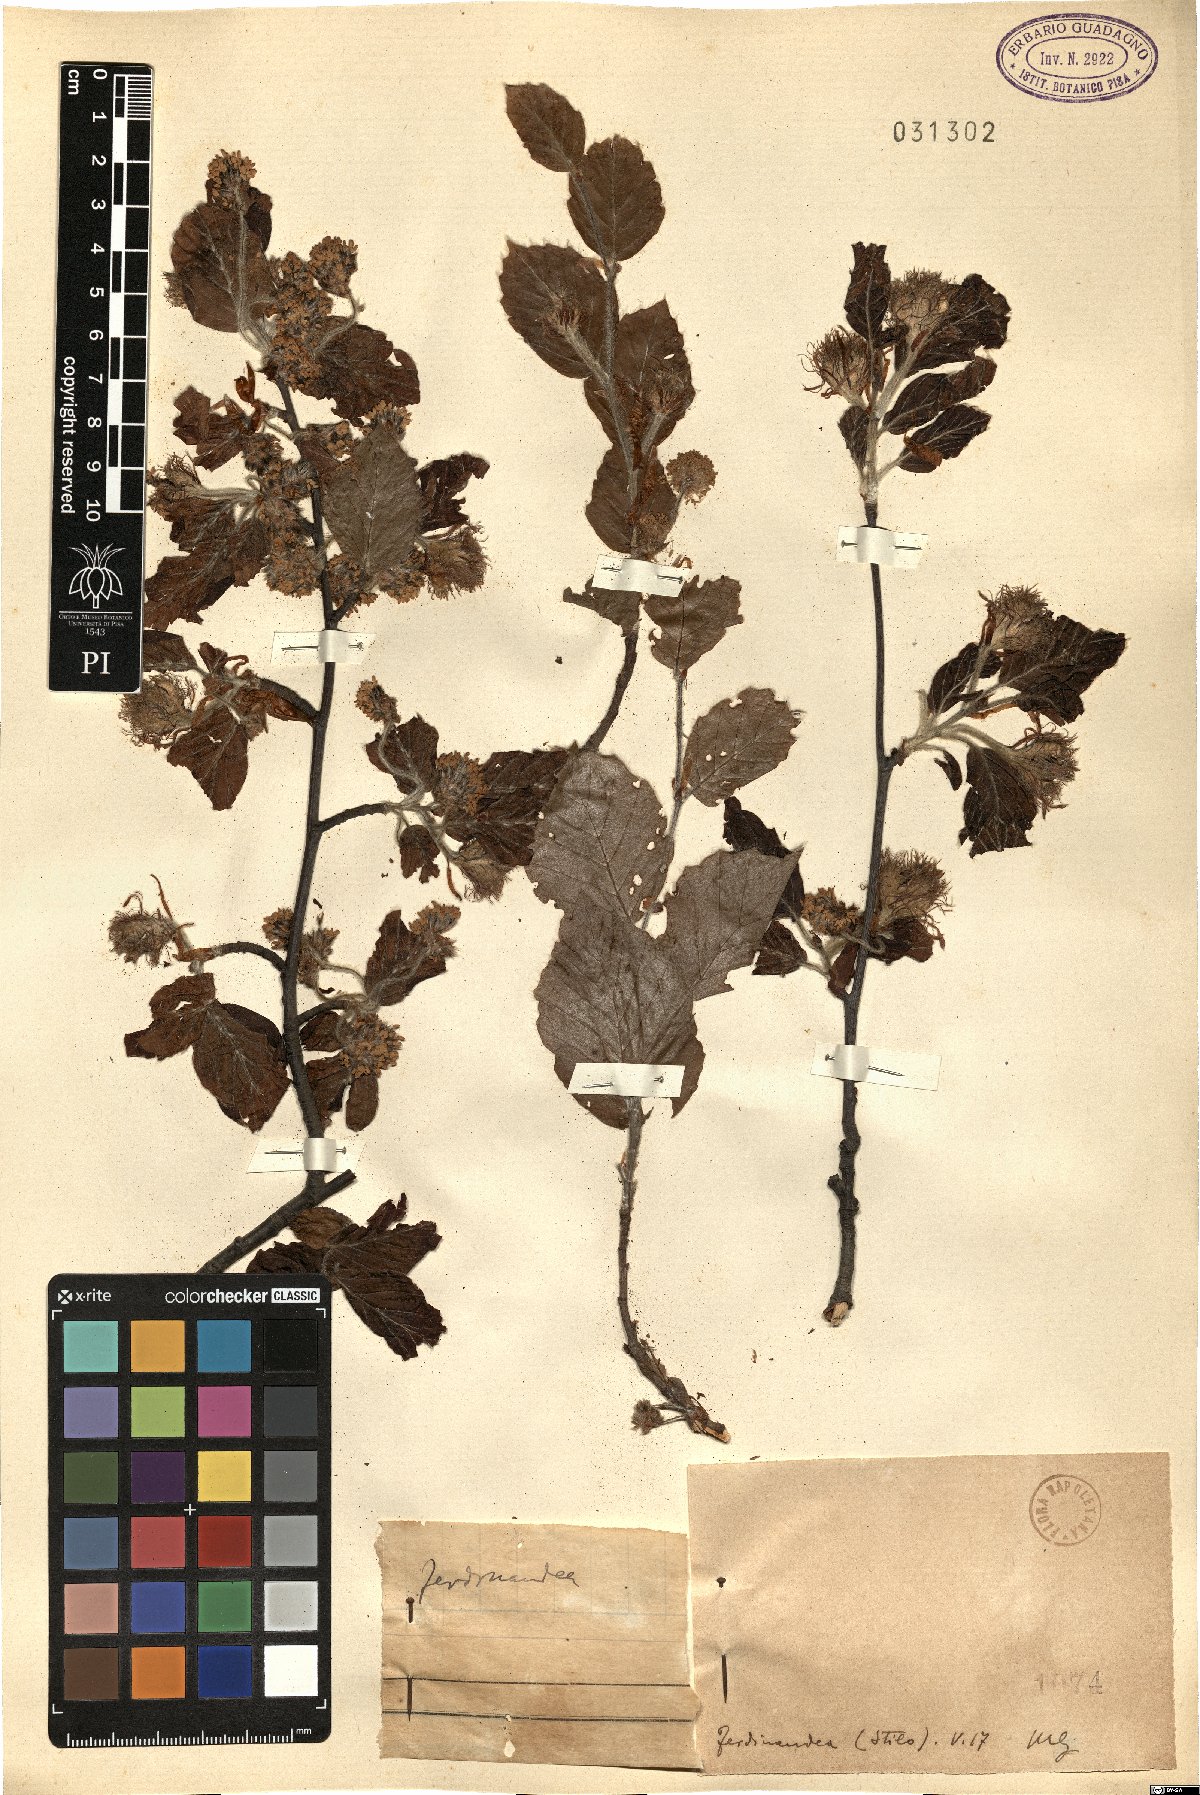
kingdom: Plantae
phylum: Tracheophyta
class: Magnoliopsida
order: Fagales
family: Fagaceae
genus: Fagus
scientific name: Fagus
